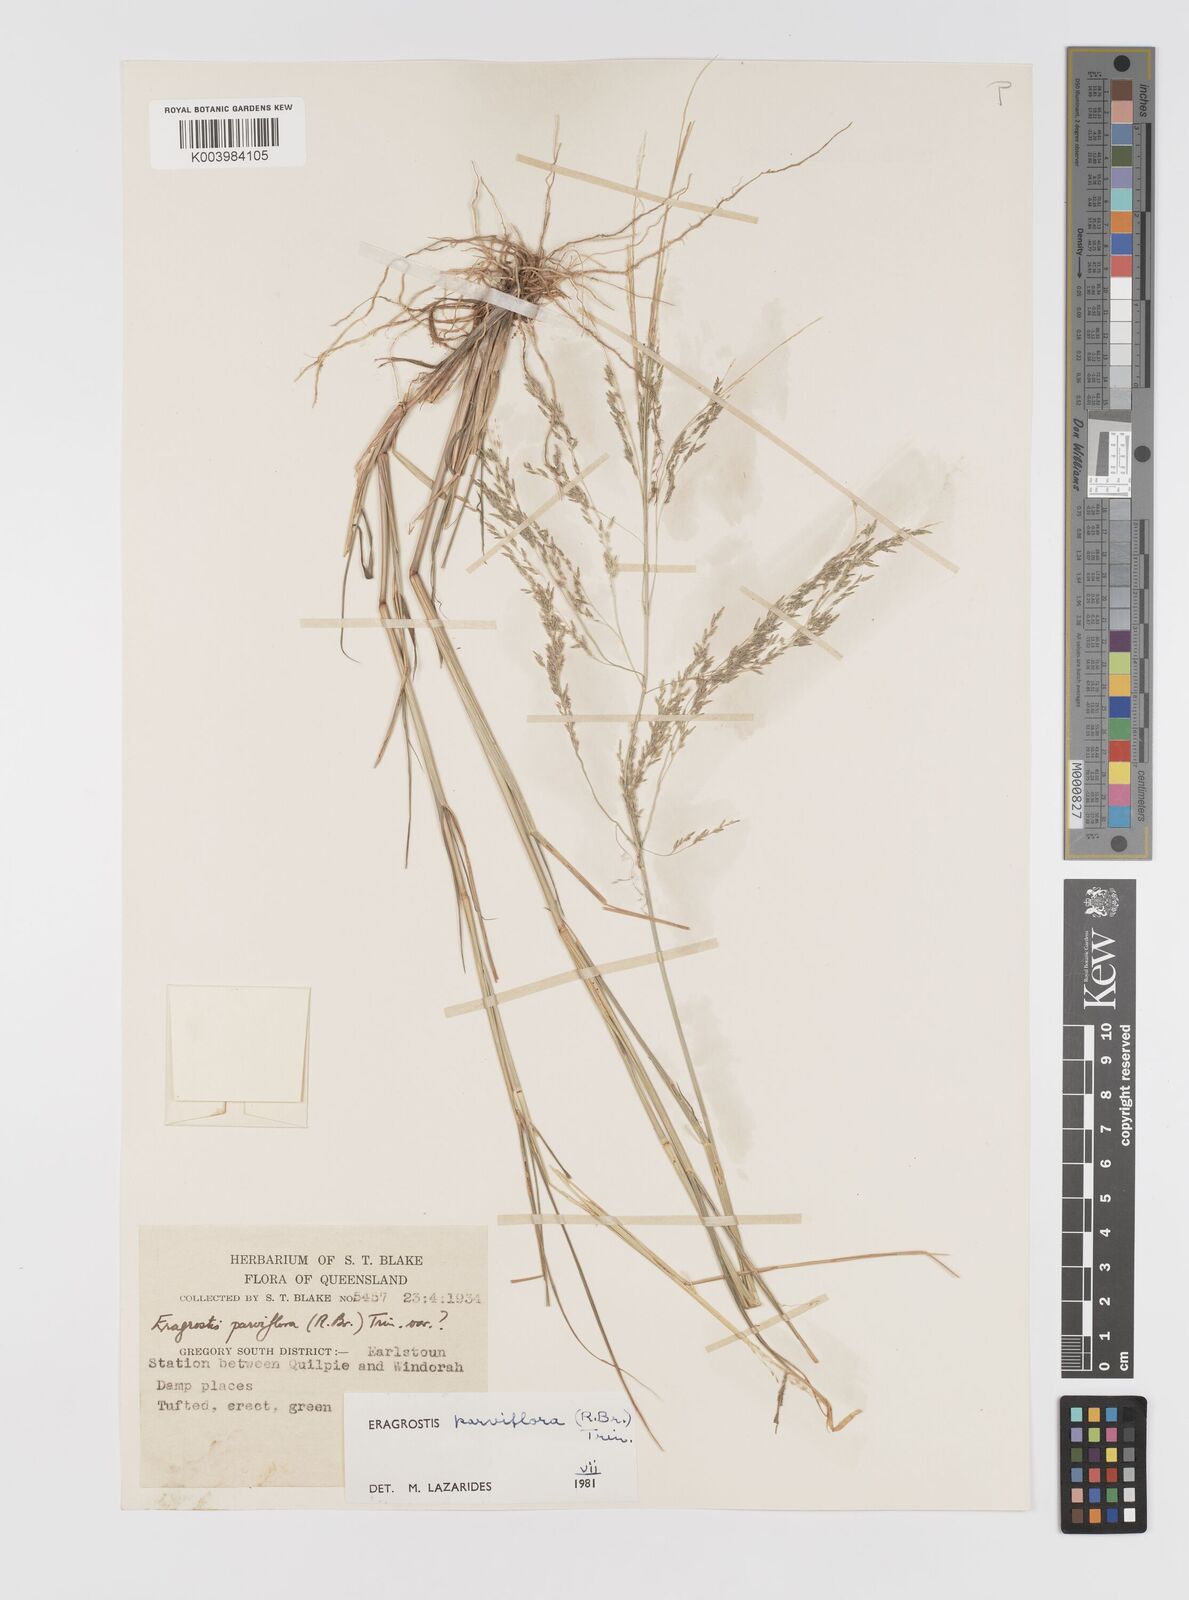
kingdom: Plantae
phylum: Tracheophyta
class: Liliopsida
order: Poales
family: Poaceae
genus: Eragrostis
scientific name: Eragrostis parviflora
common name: Weeping love-grass
